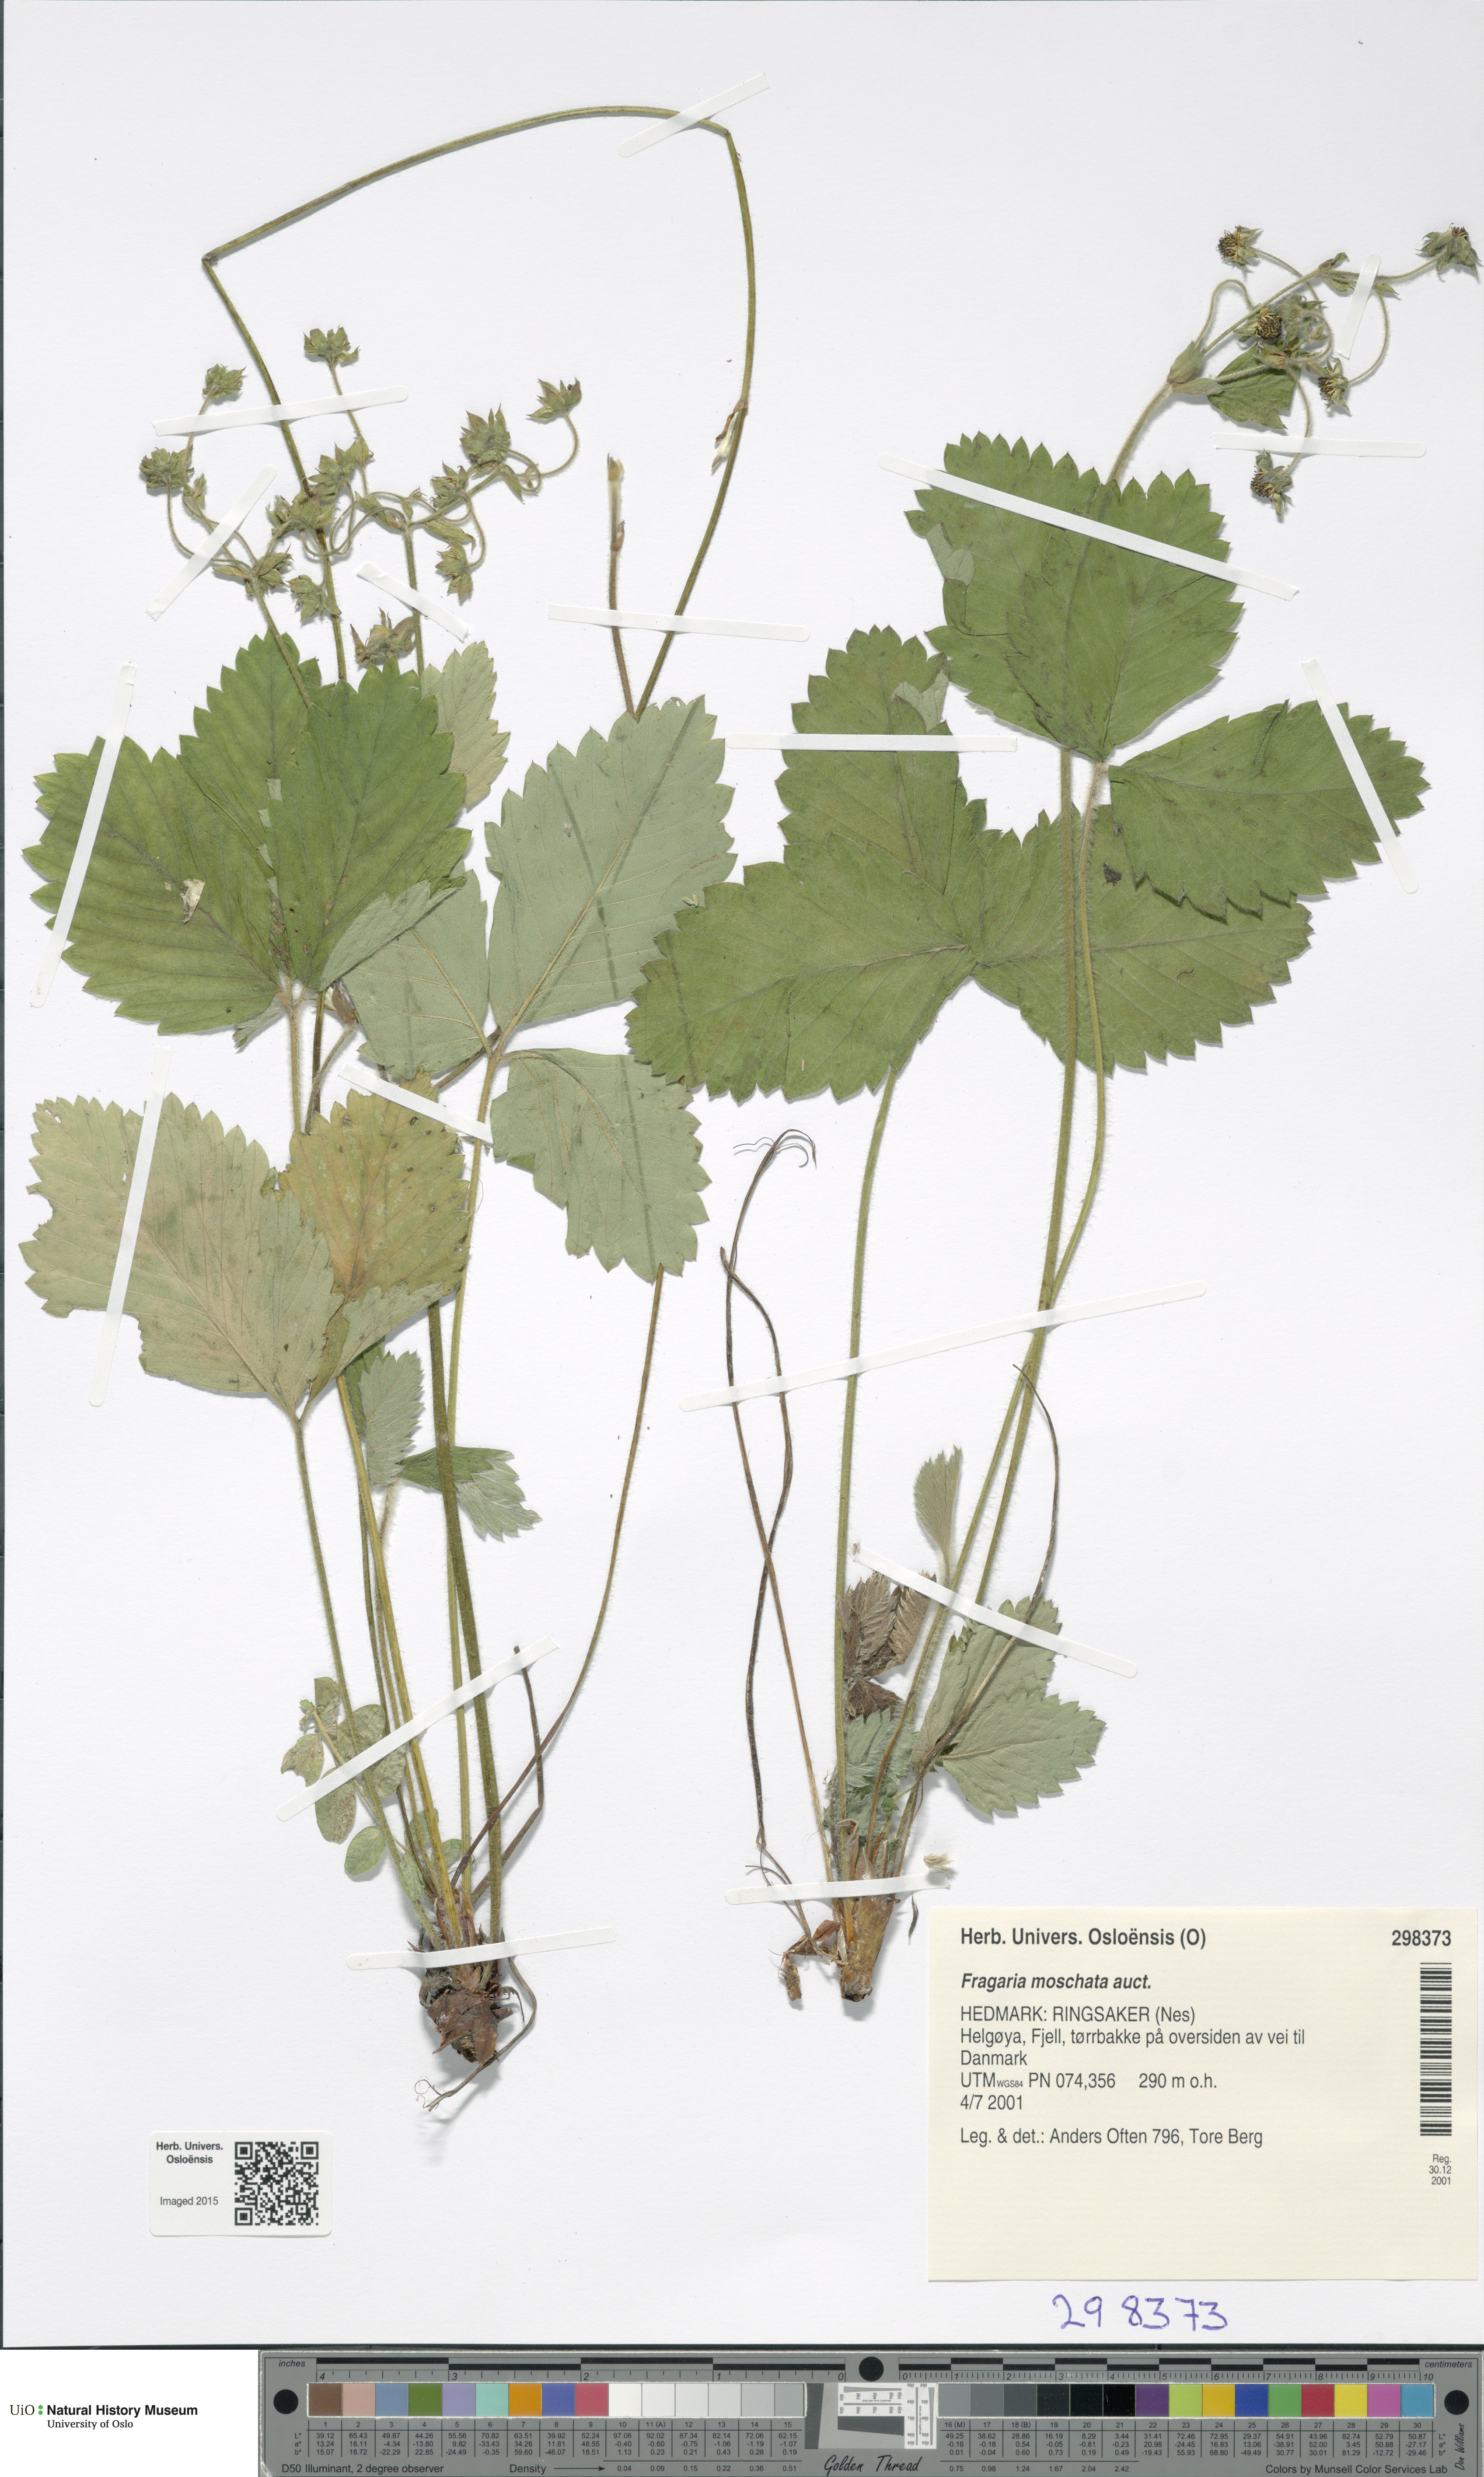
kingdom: Plantae
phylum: Tracheophyta
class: Magnoliopsida
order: Rosales
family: Rosaceae
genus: Fragaria
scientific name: Fragaria moschata
